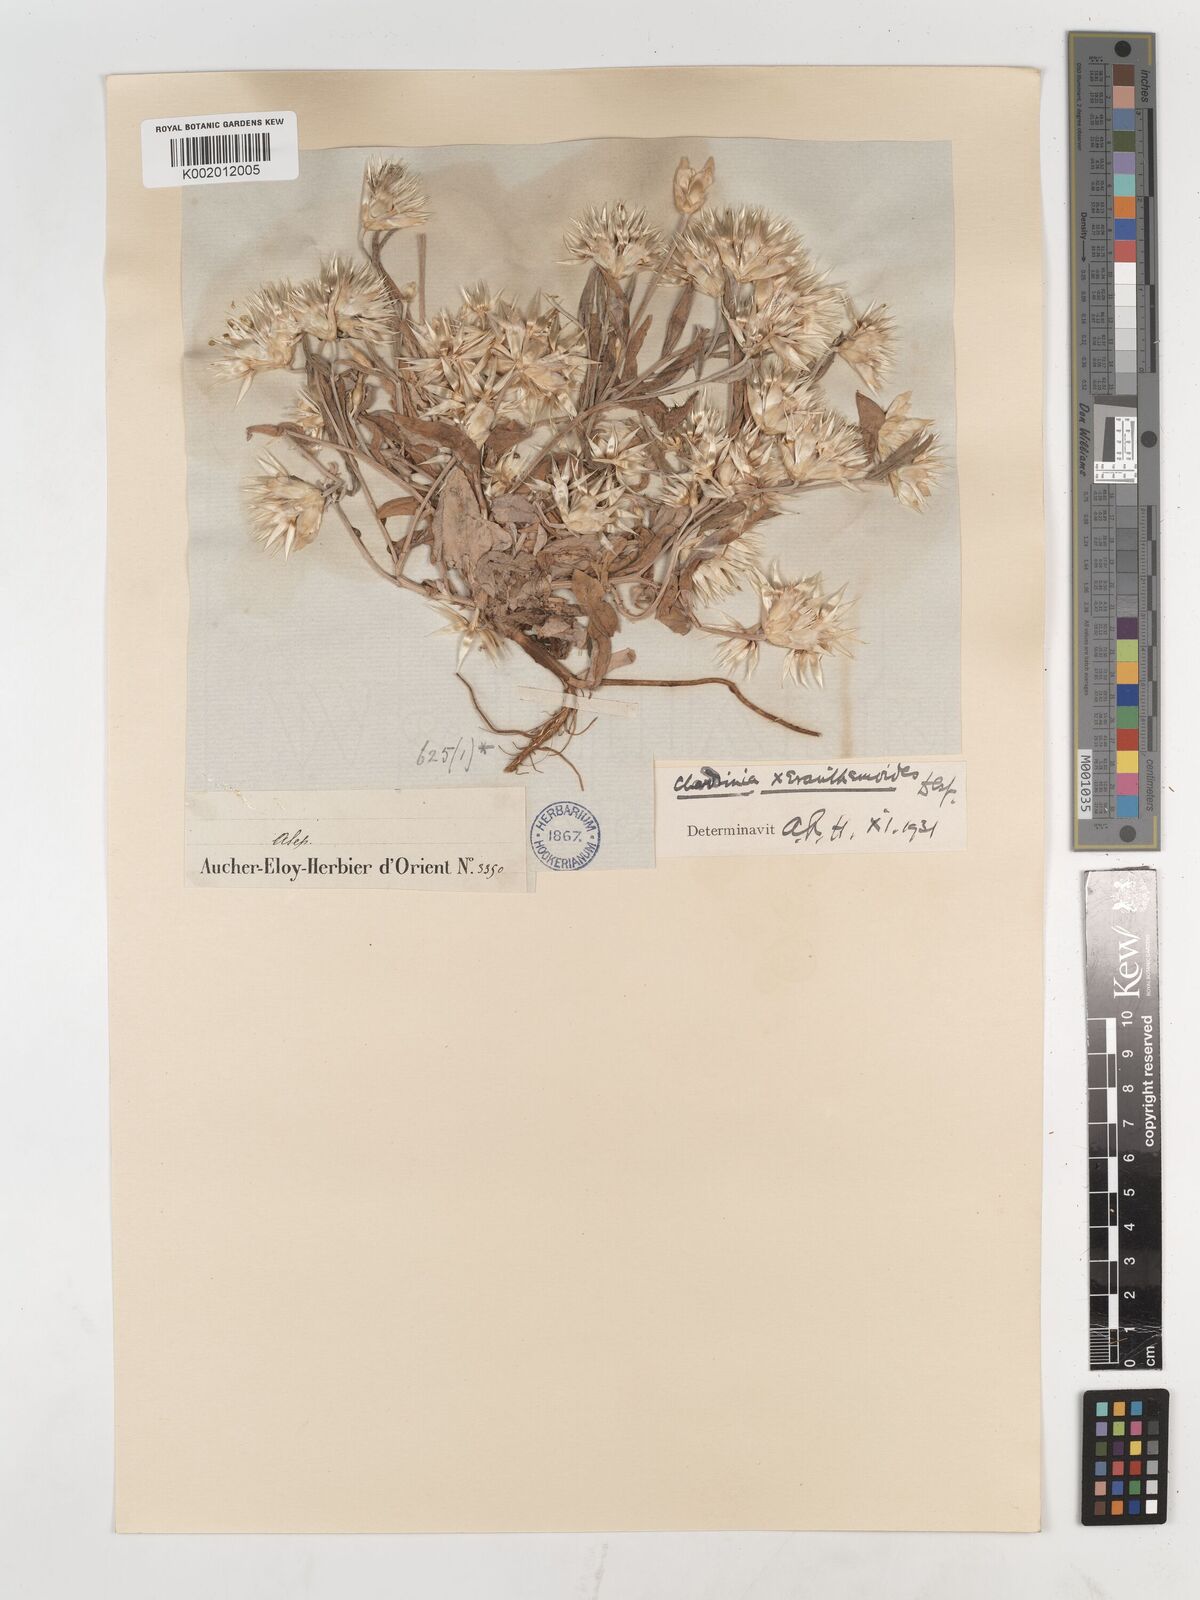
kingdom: Plantae
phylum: Tracheophyta
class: Magnoliopsida
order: Asterales
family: Asteraceae
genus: Chardinia
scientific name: Chardinia orientalis
